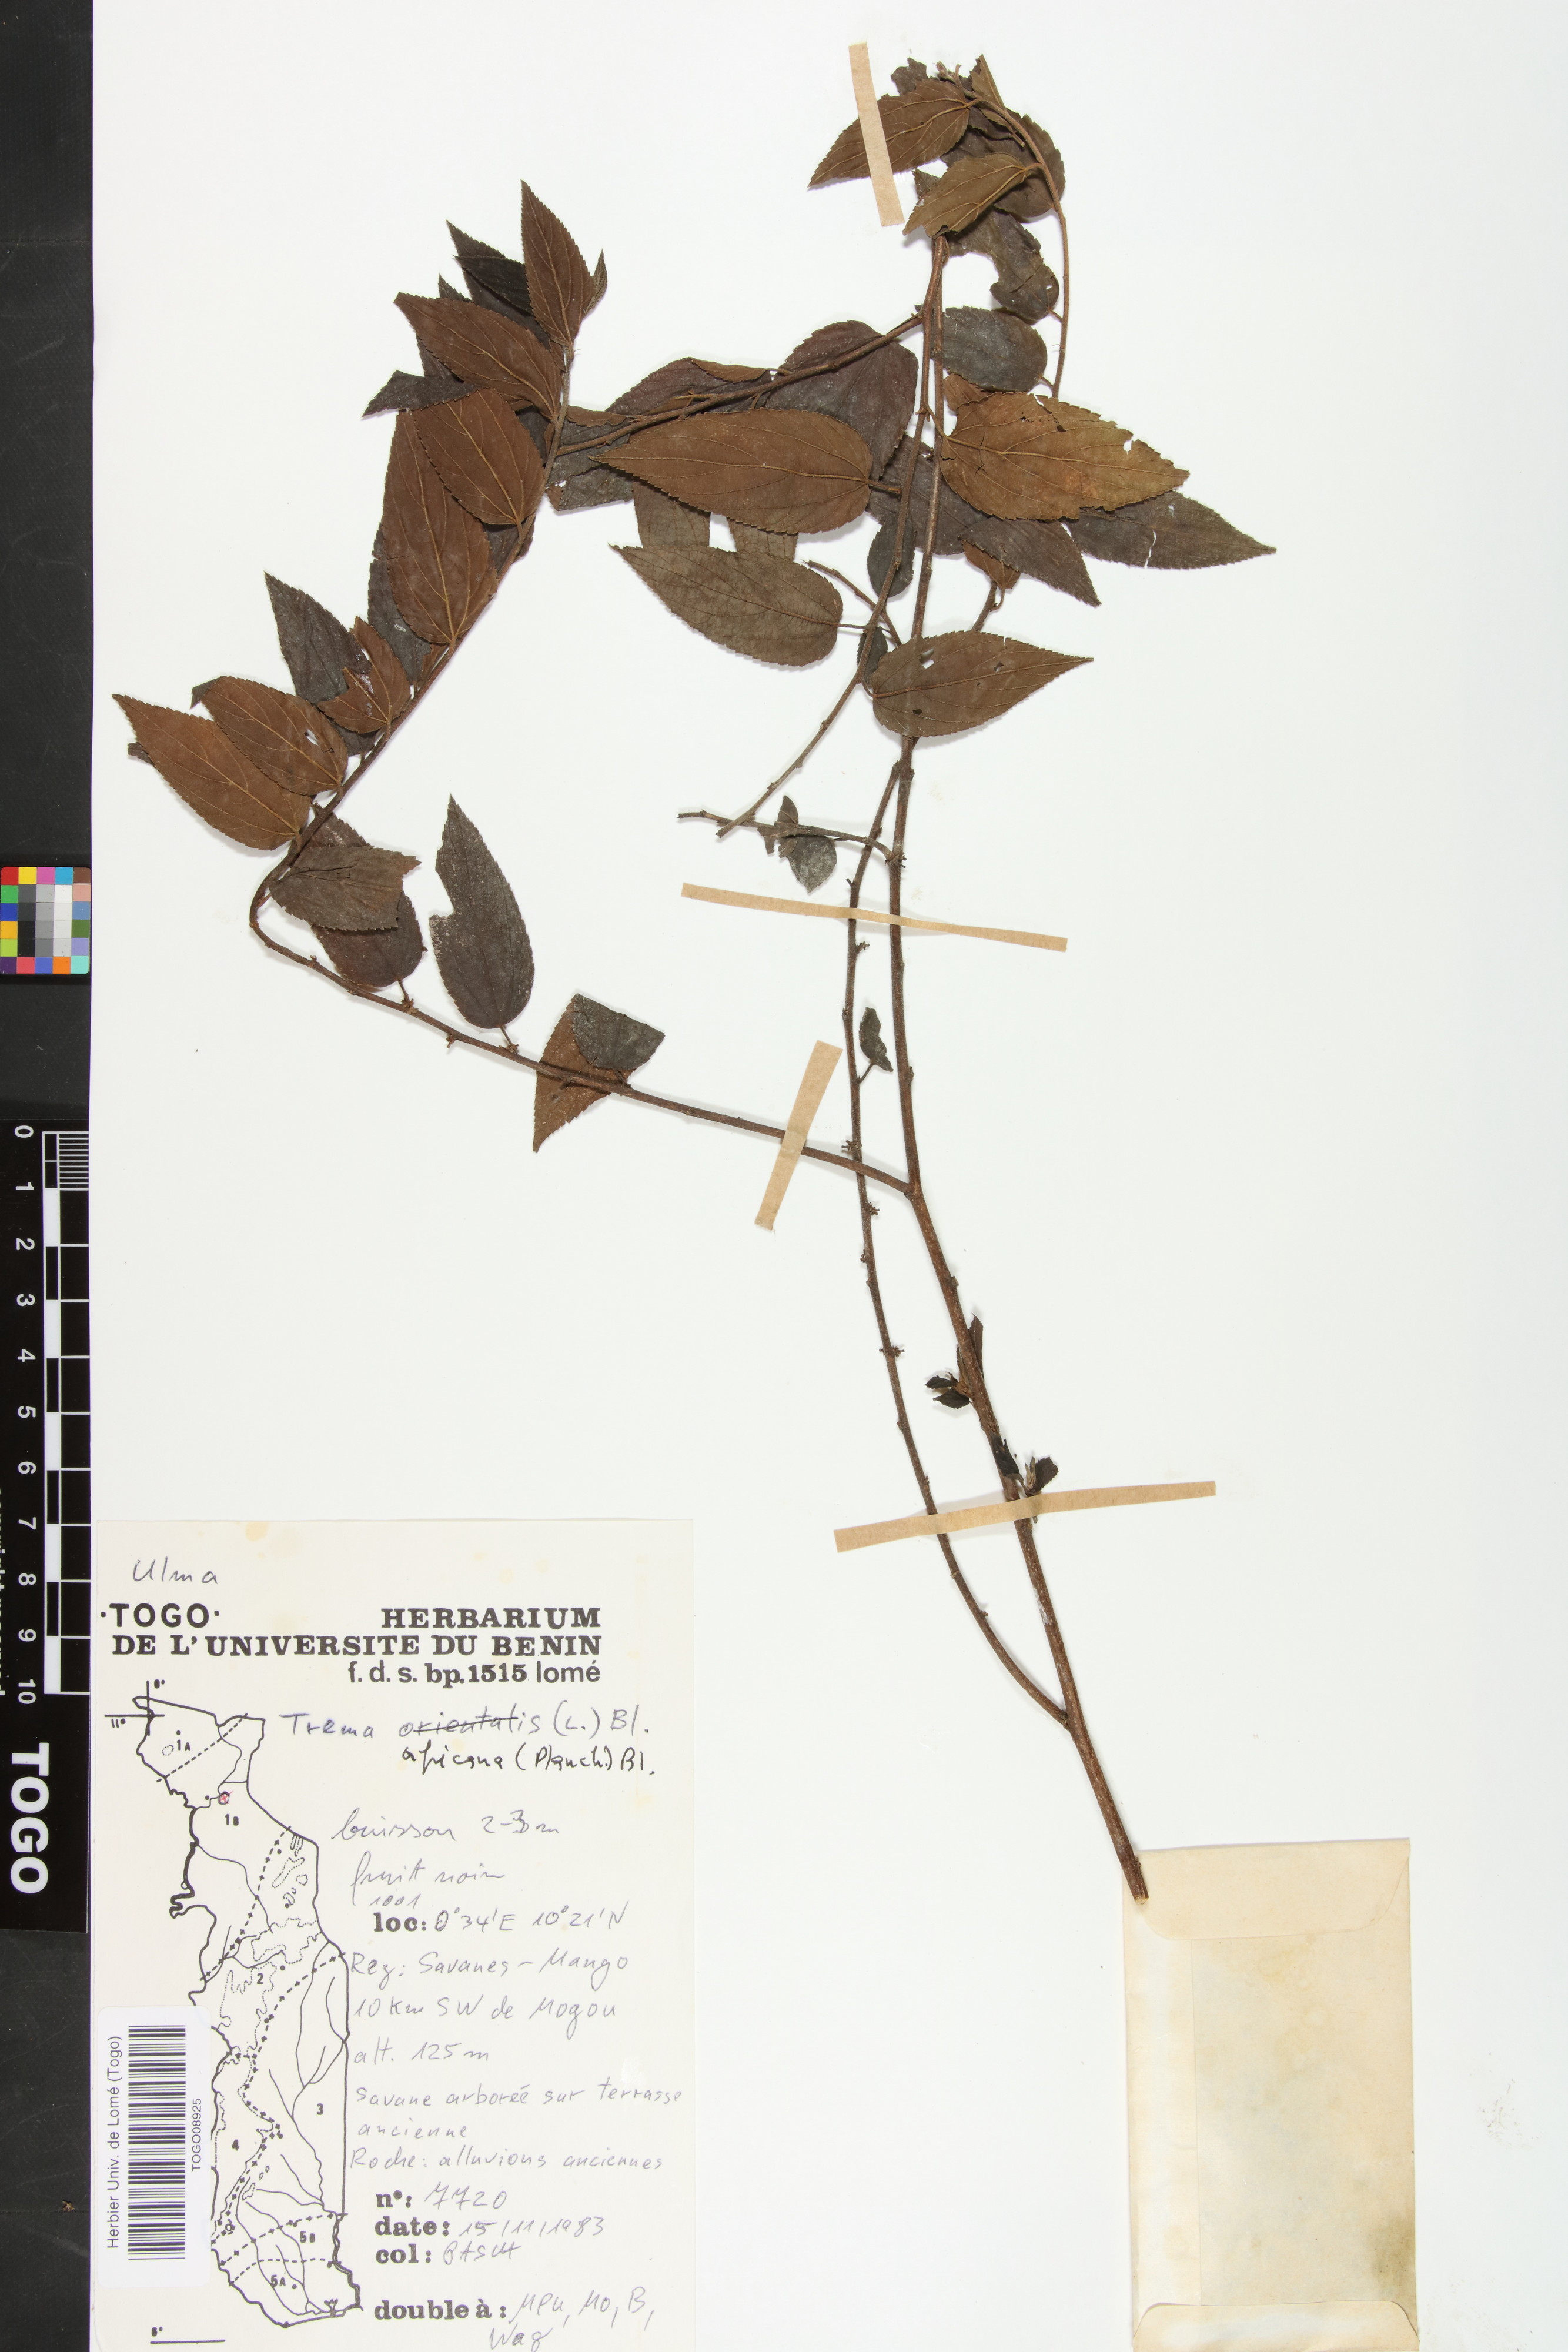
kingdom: Plantae
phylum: Tracheophyta
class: Magnoliopsida
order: Rosales
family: Cannabaceae
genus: Trema
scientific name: Trema orientale
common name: Indian charcoal tree
